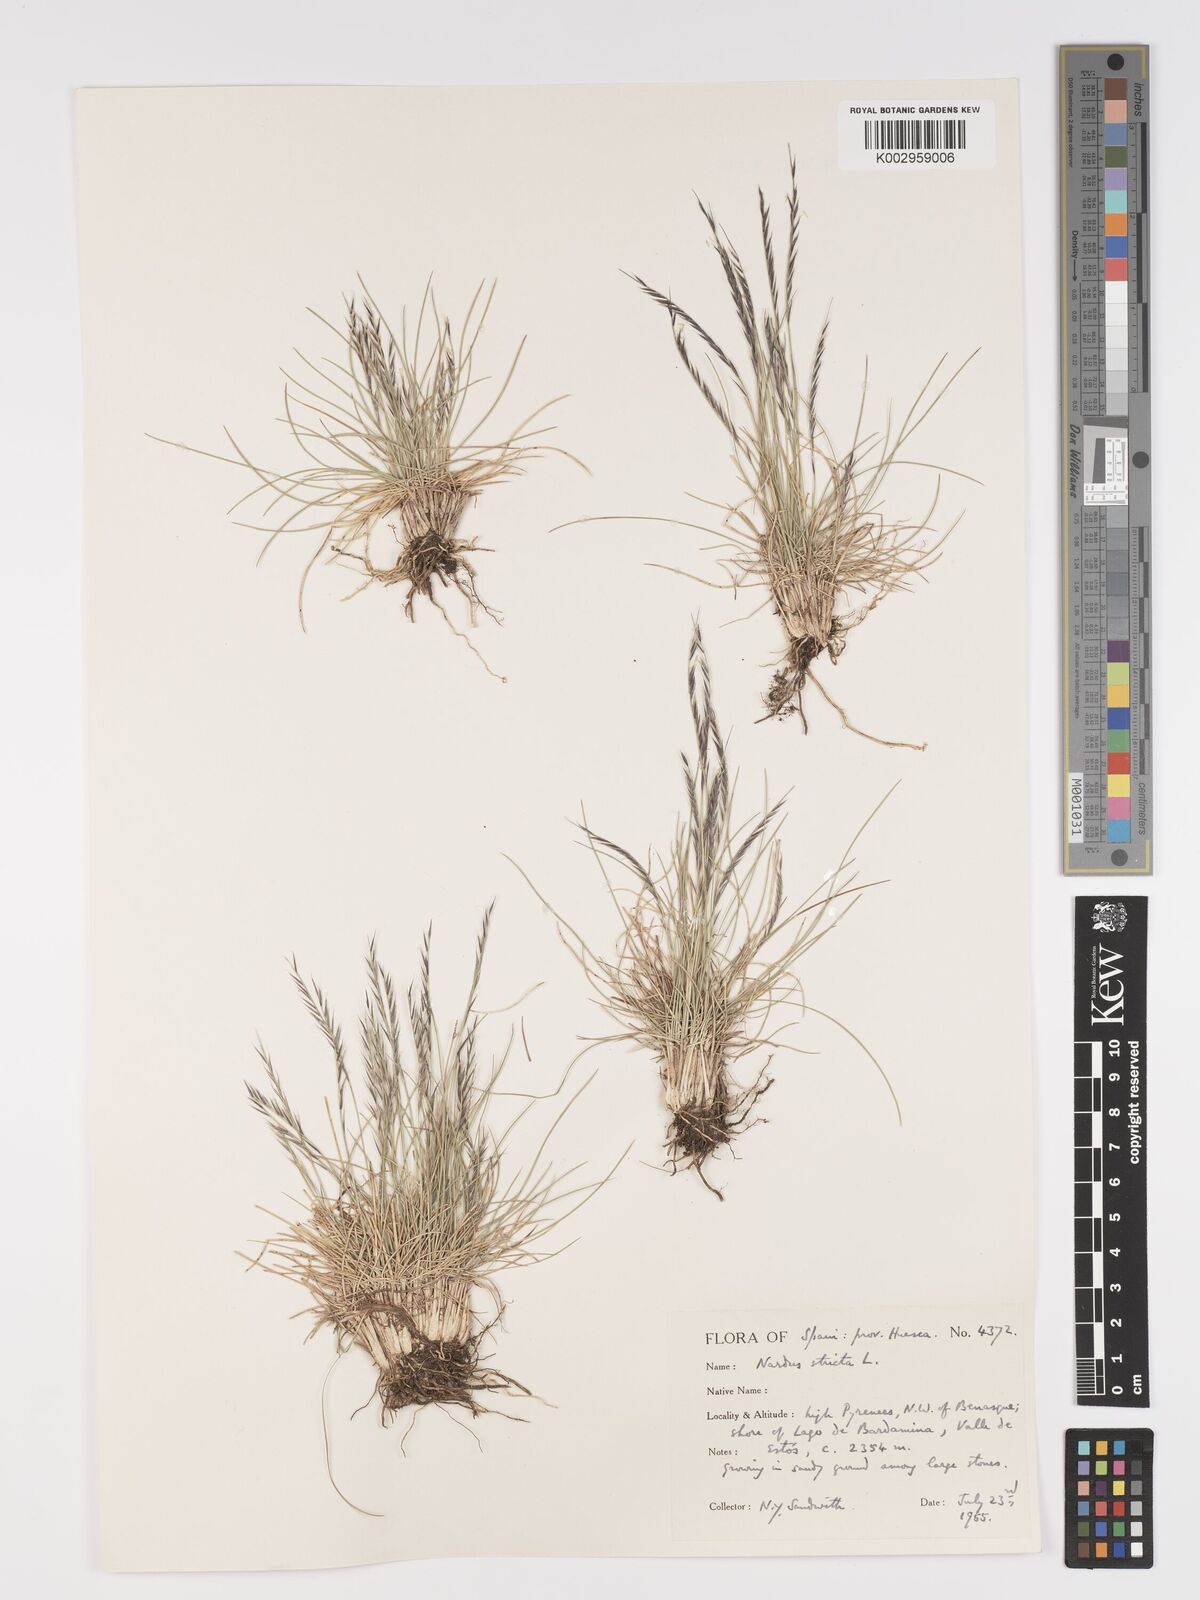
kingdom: Plantae
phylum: Tracheophyta
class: Liliopsida
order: Poales
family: Poaceae
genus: Nardus
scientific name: Nardus stricta
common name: Mat-grass
